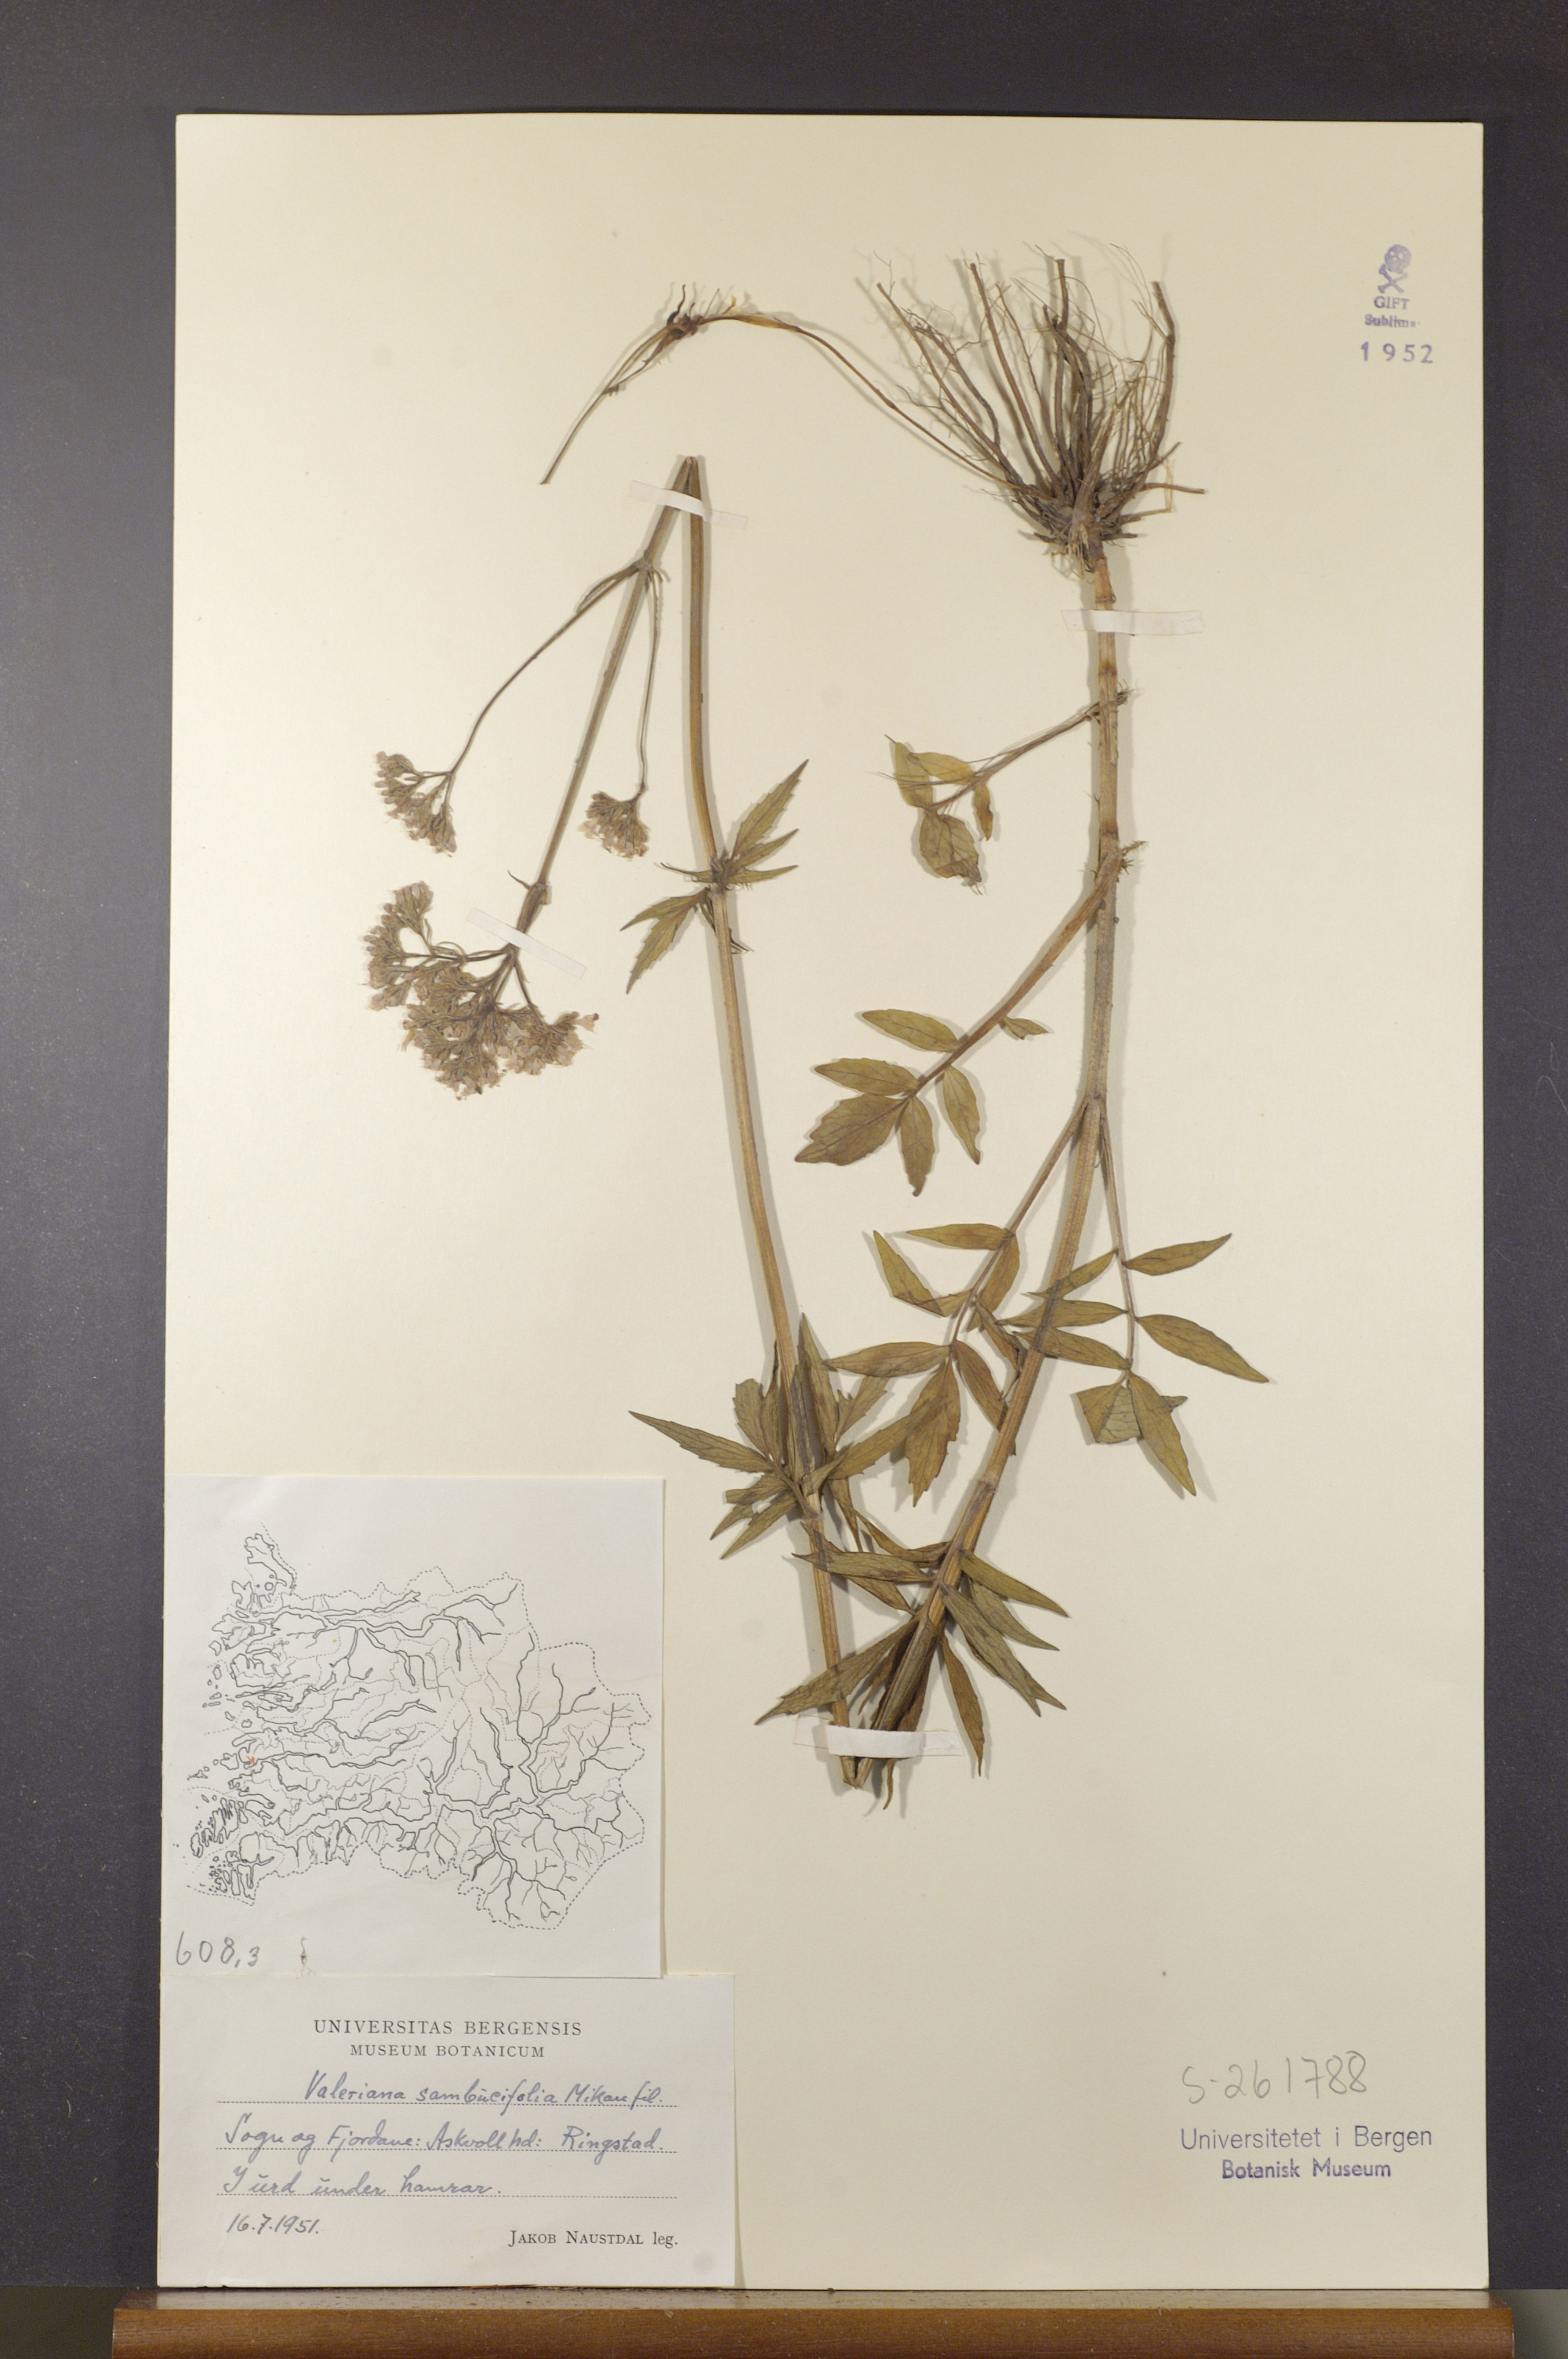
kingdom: Plantae
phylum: Tracheophyta
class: Magnoliopsida
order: Dipsacales
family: Caprifoliaceae
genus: Valeriana
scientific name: Valeriana excelsa
